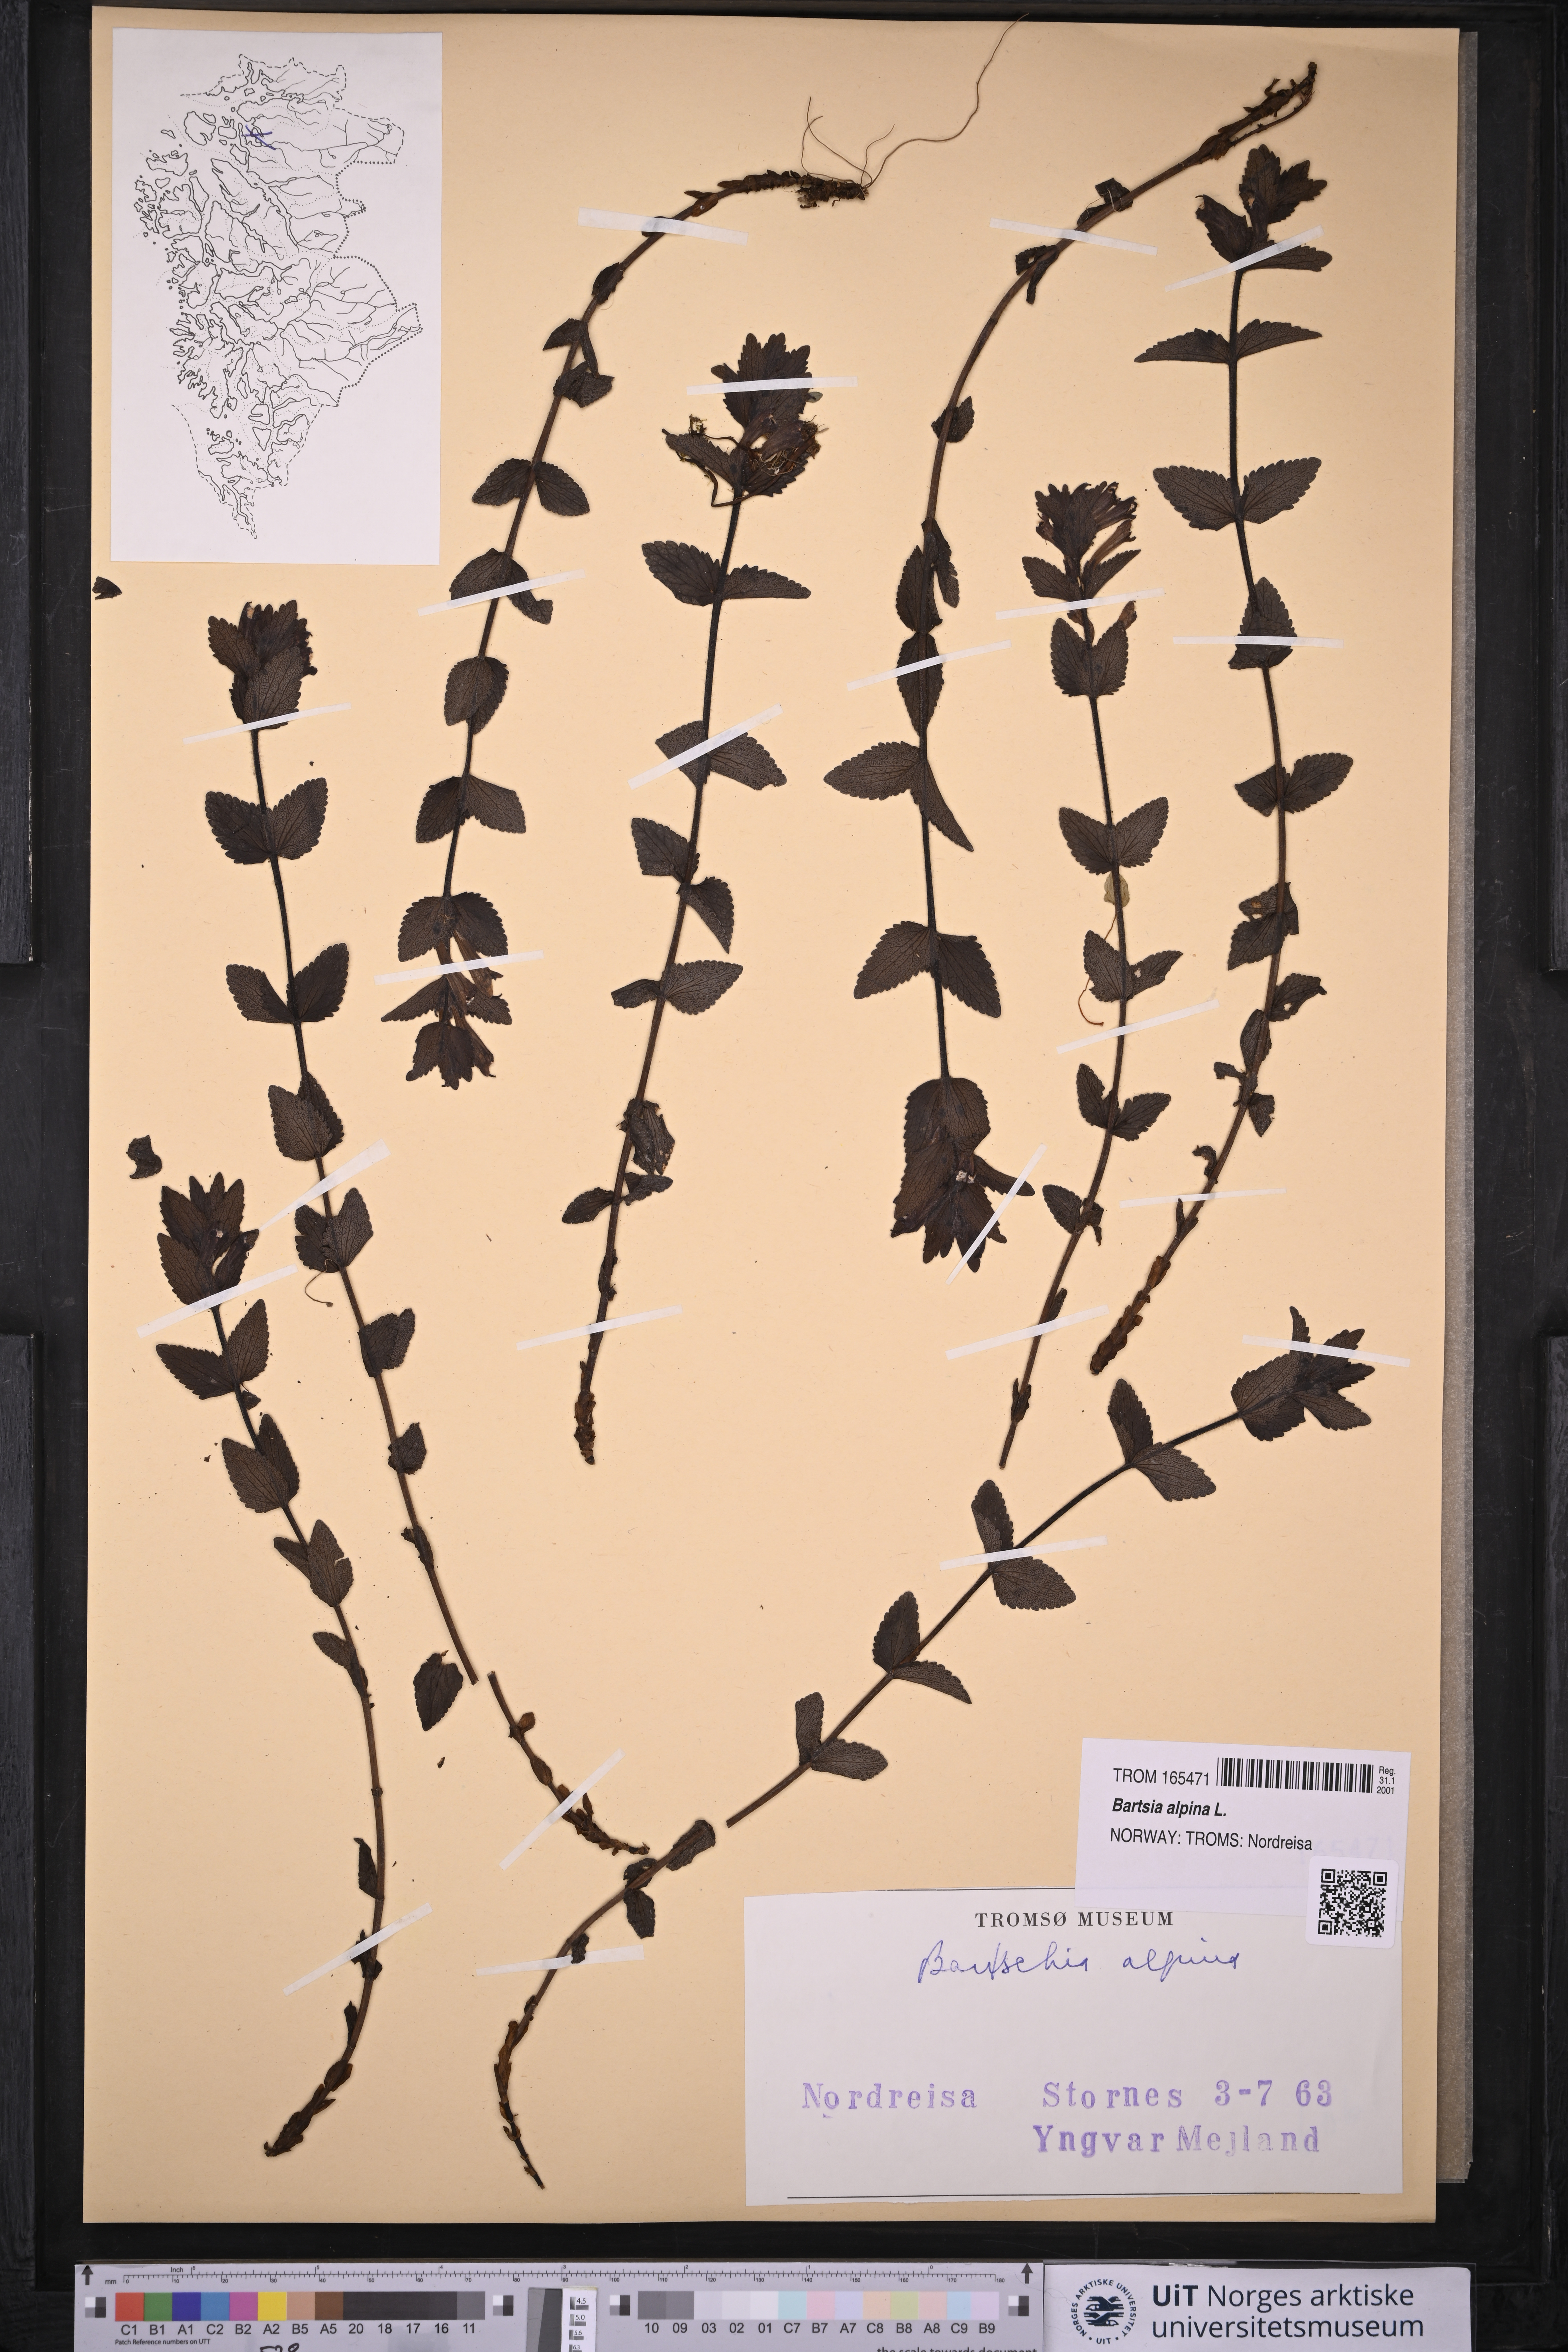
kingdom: Plantae
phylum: Tracheophyta
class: Magnoliopsida
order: Lamiales
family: Orobanchaceae
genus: Bartsia
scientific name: Bartsia alpina
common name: Alpine bartsia
